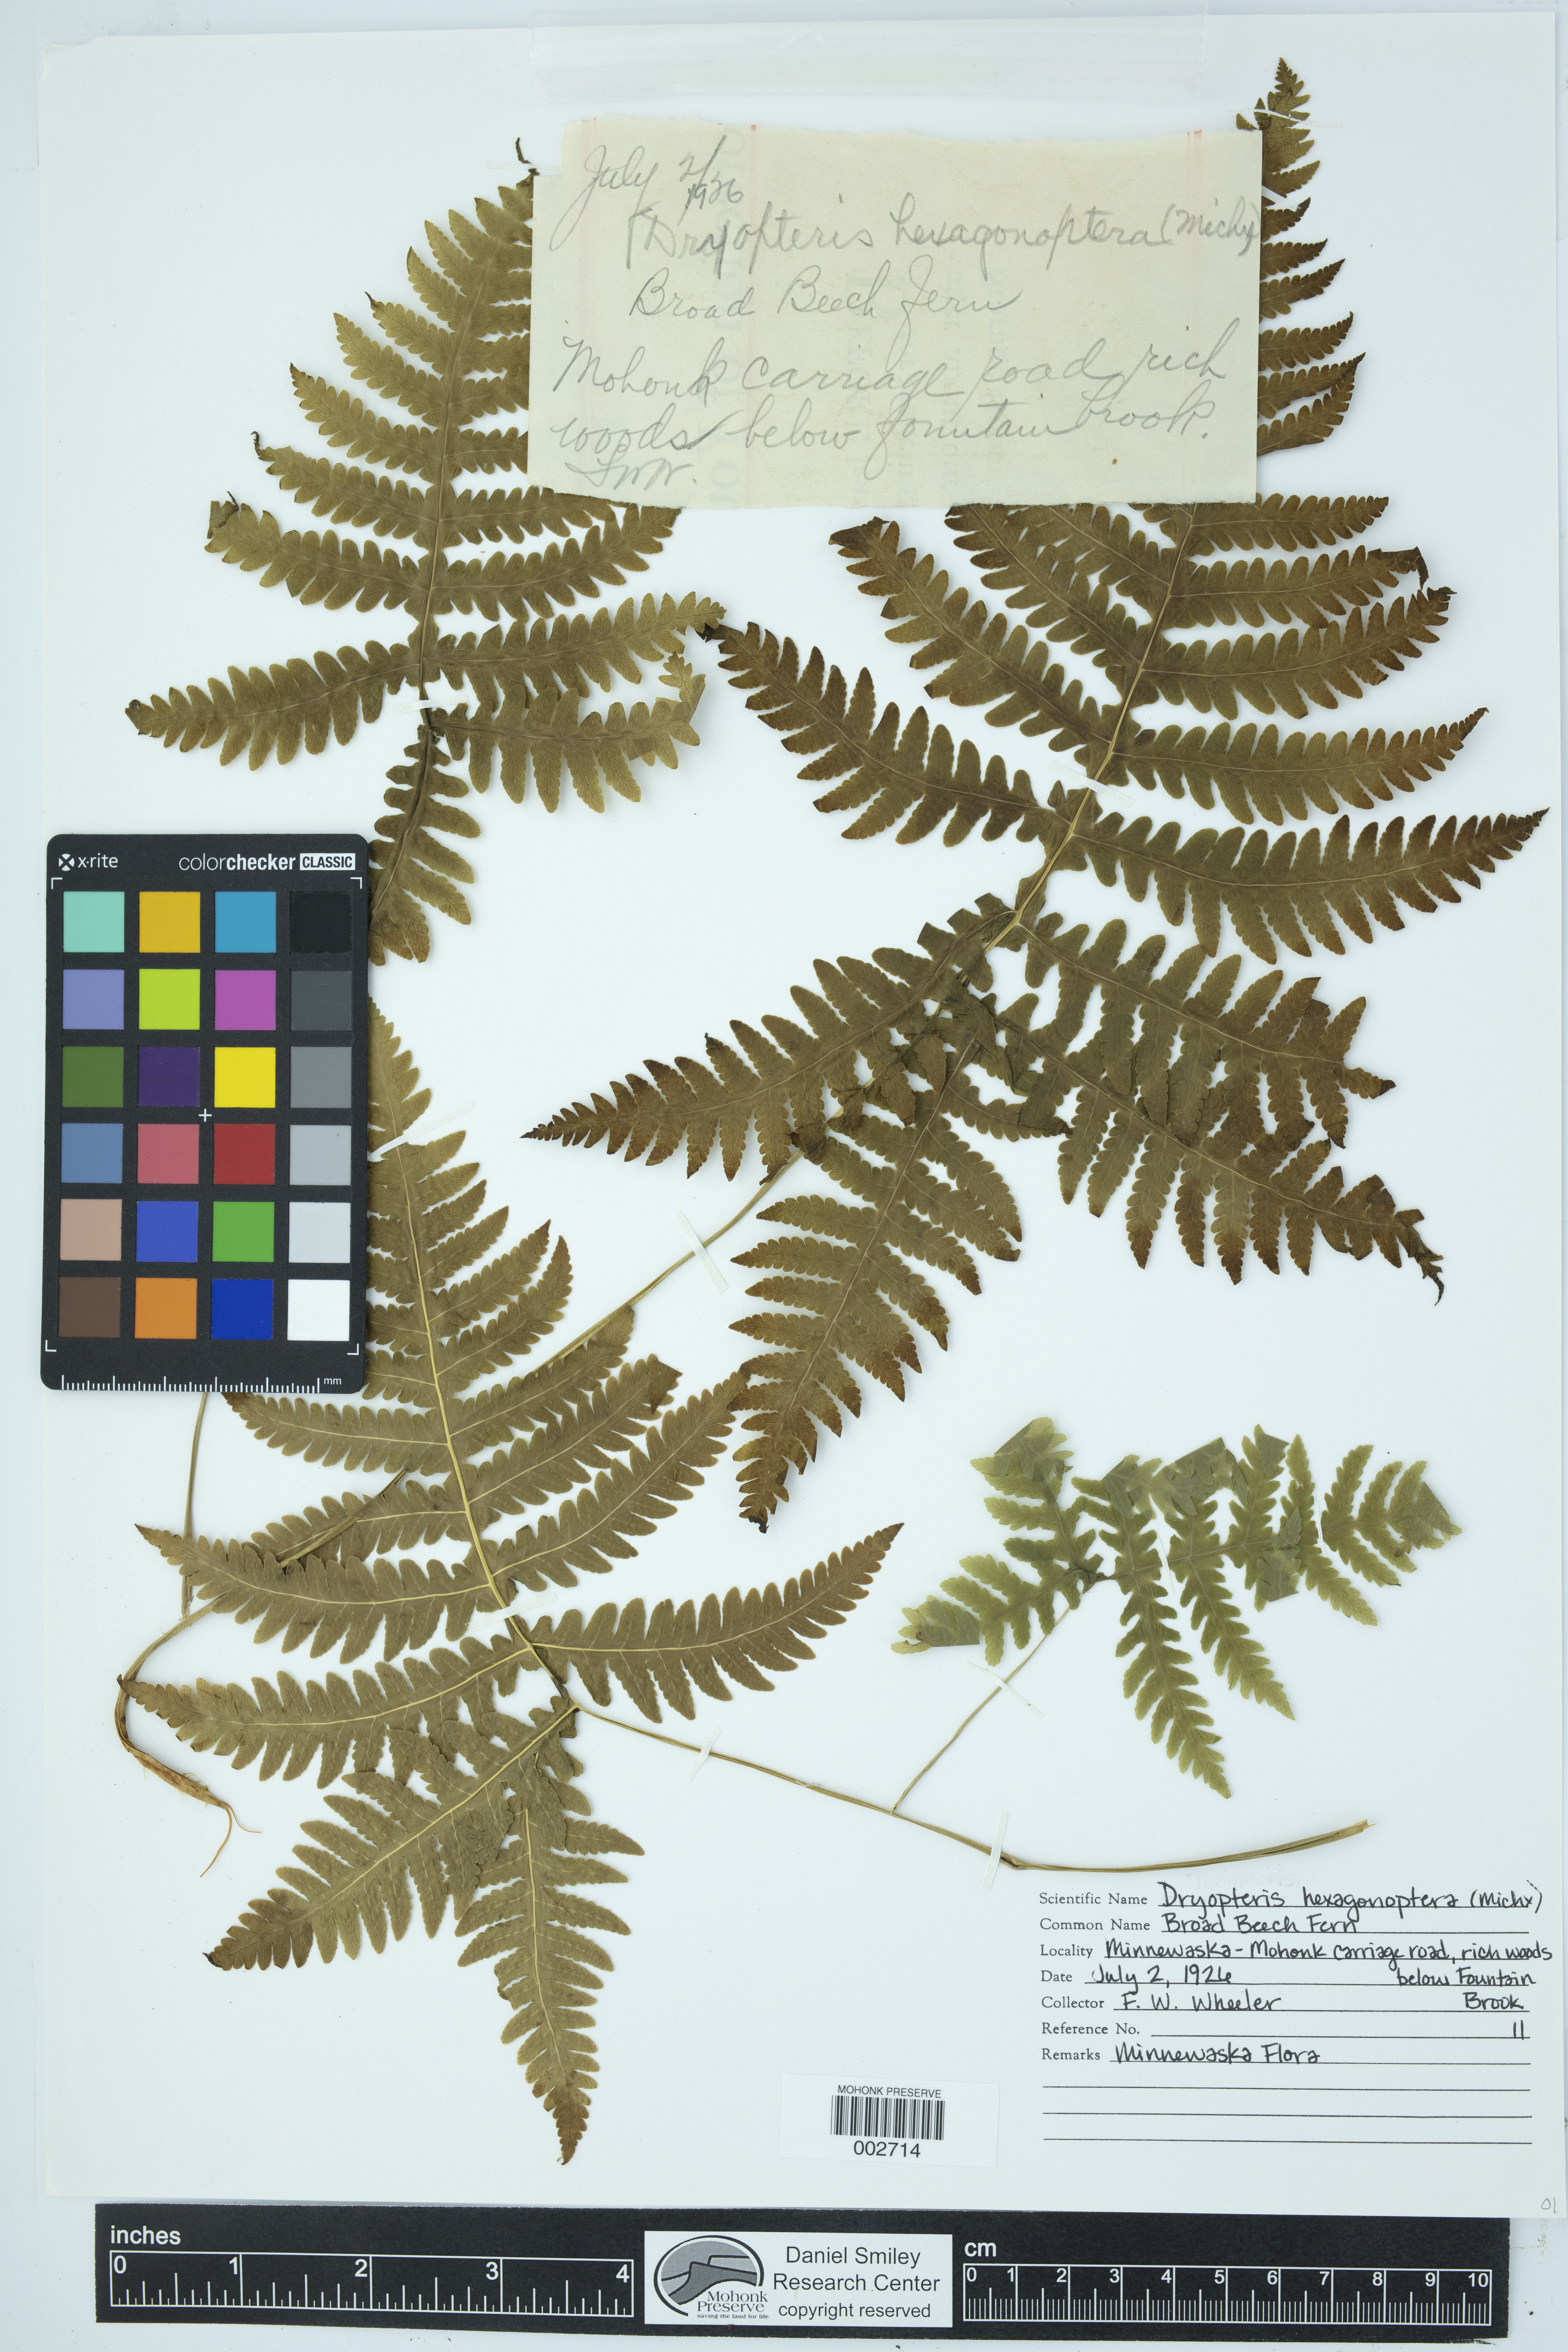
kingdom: Plantae
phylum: Tracheophyta
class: Polypodiopsida
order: Polypodiales
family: Thelypteridaceae
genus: Phegopteris
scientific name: Phegopteris hexagonoptera
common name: Broad beech fern
